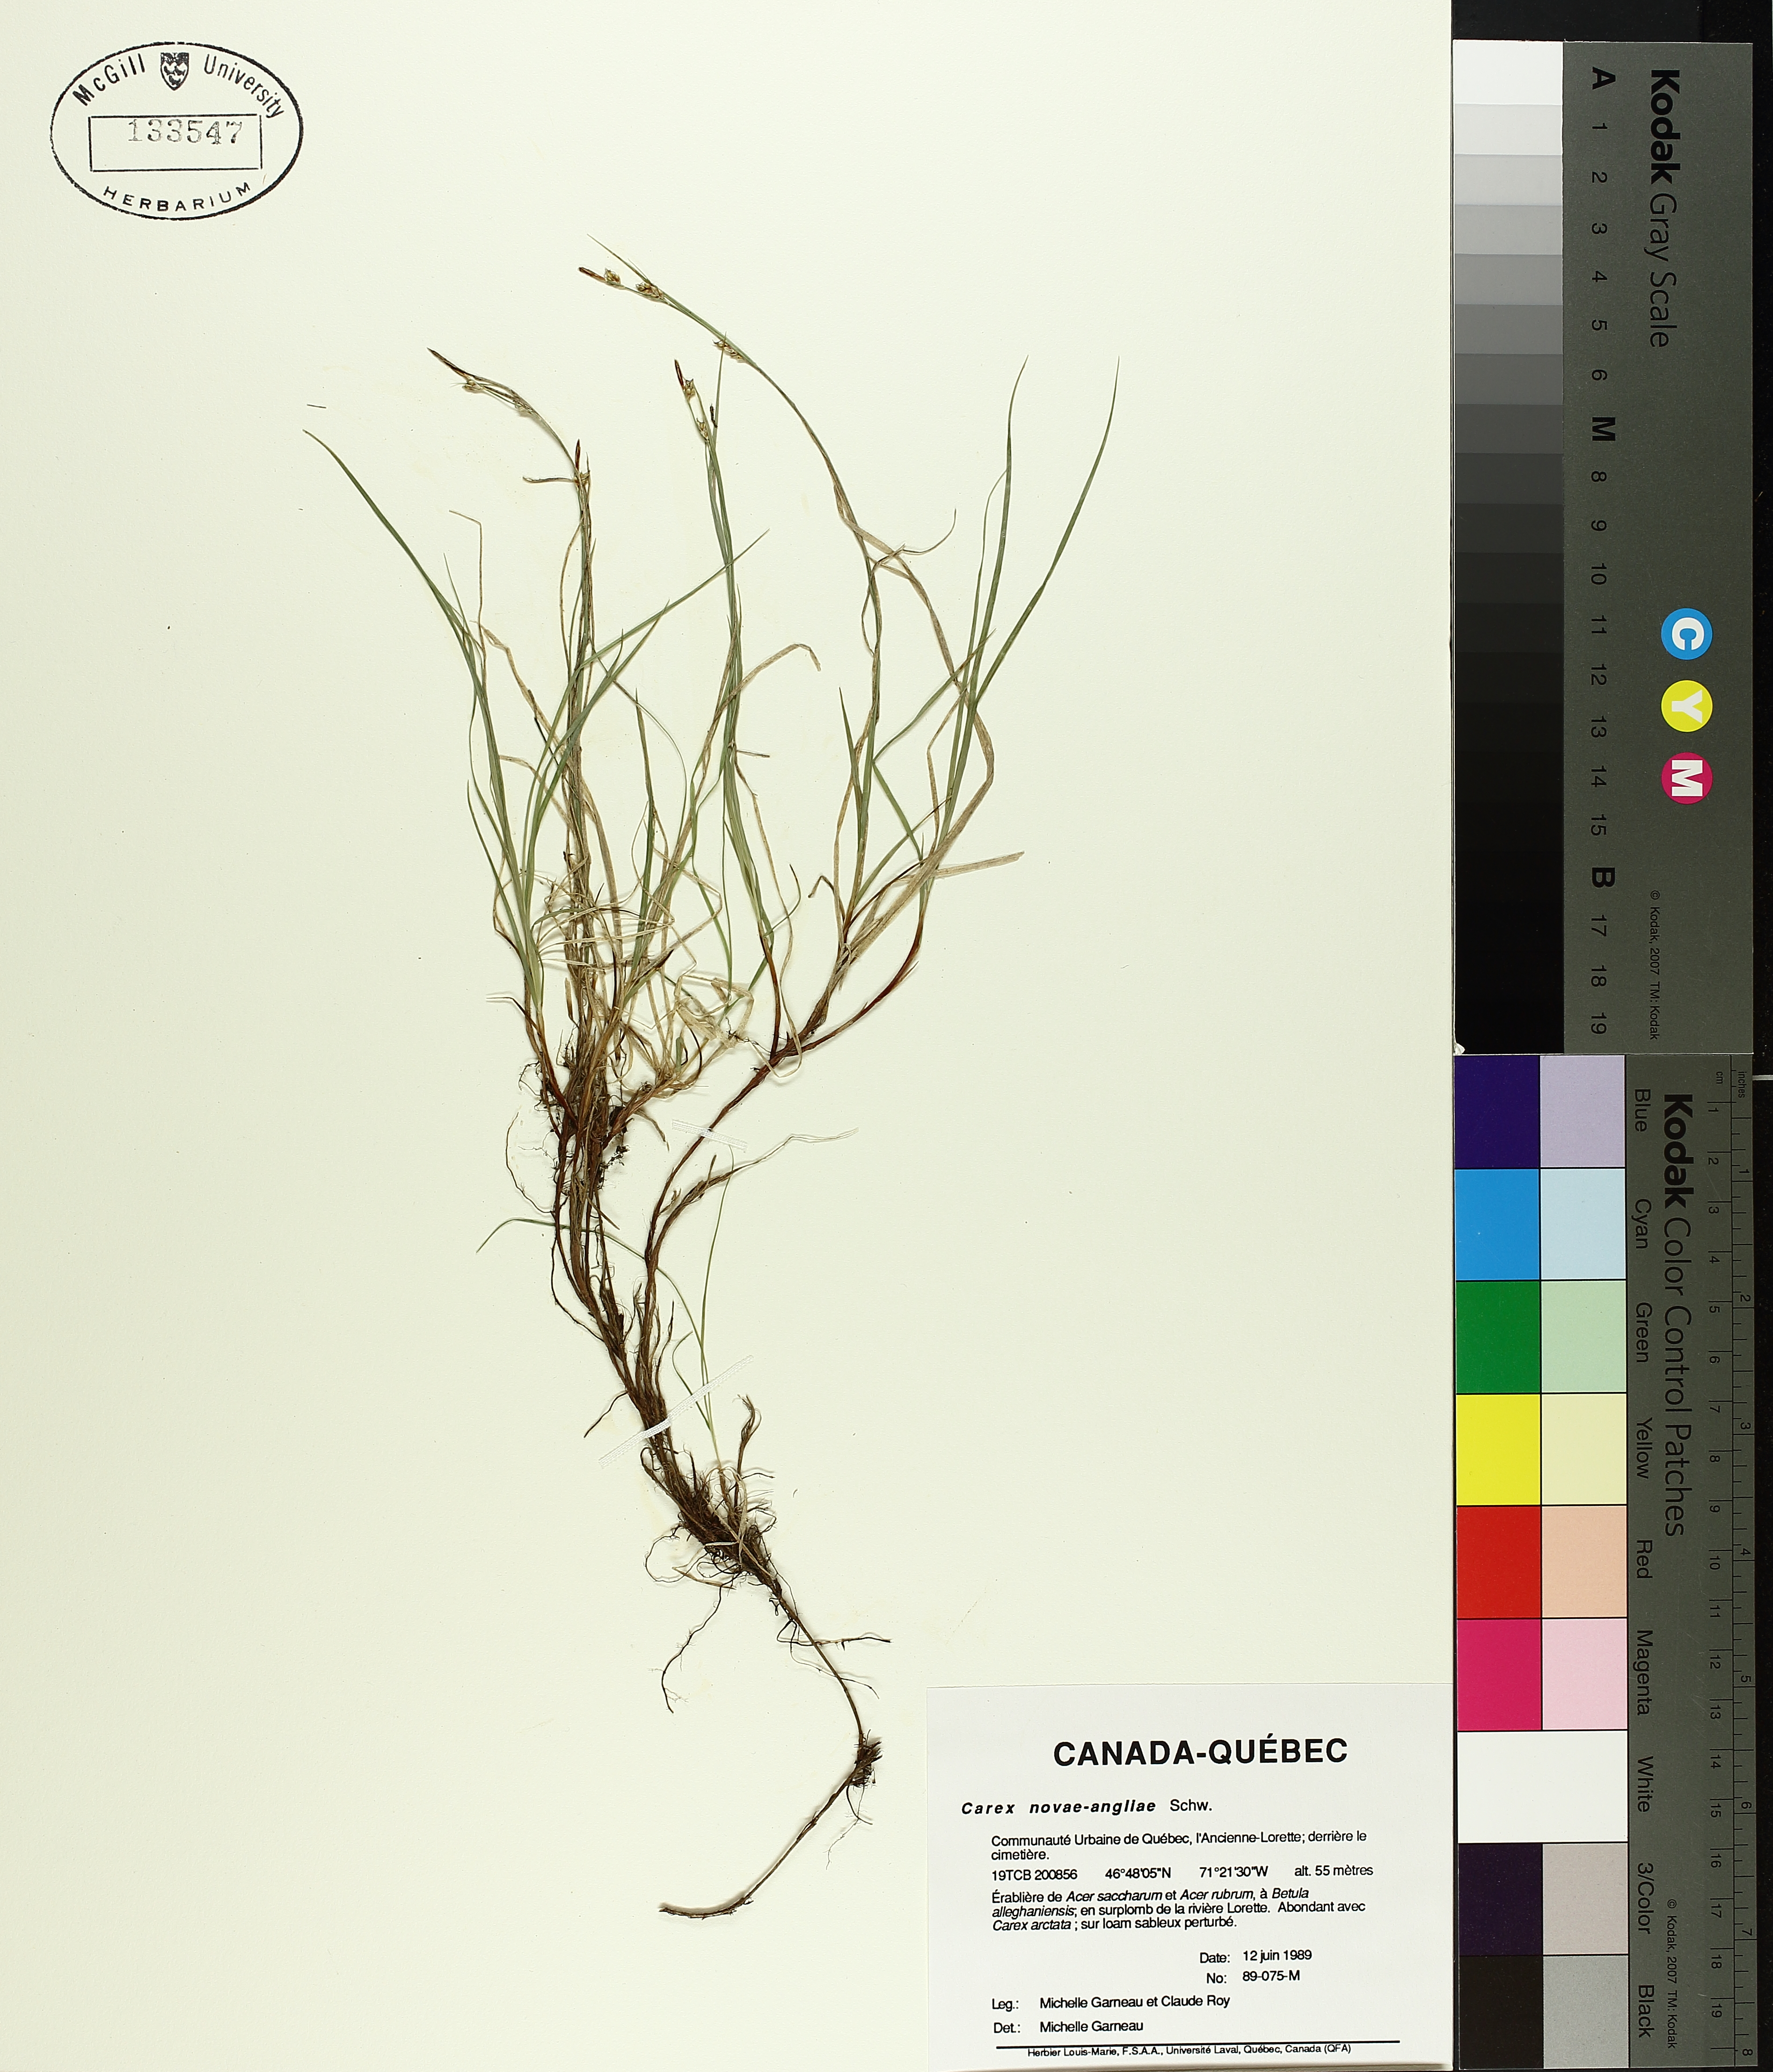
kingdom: Plantae
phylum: Tracheophyta
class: Liliopsida
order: Poales
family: Cyperaceae
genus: Carex
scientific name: Carex novae-angliae
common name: New england sedge
